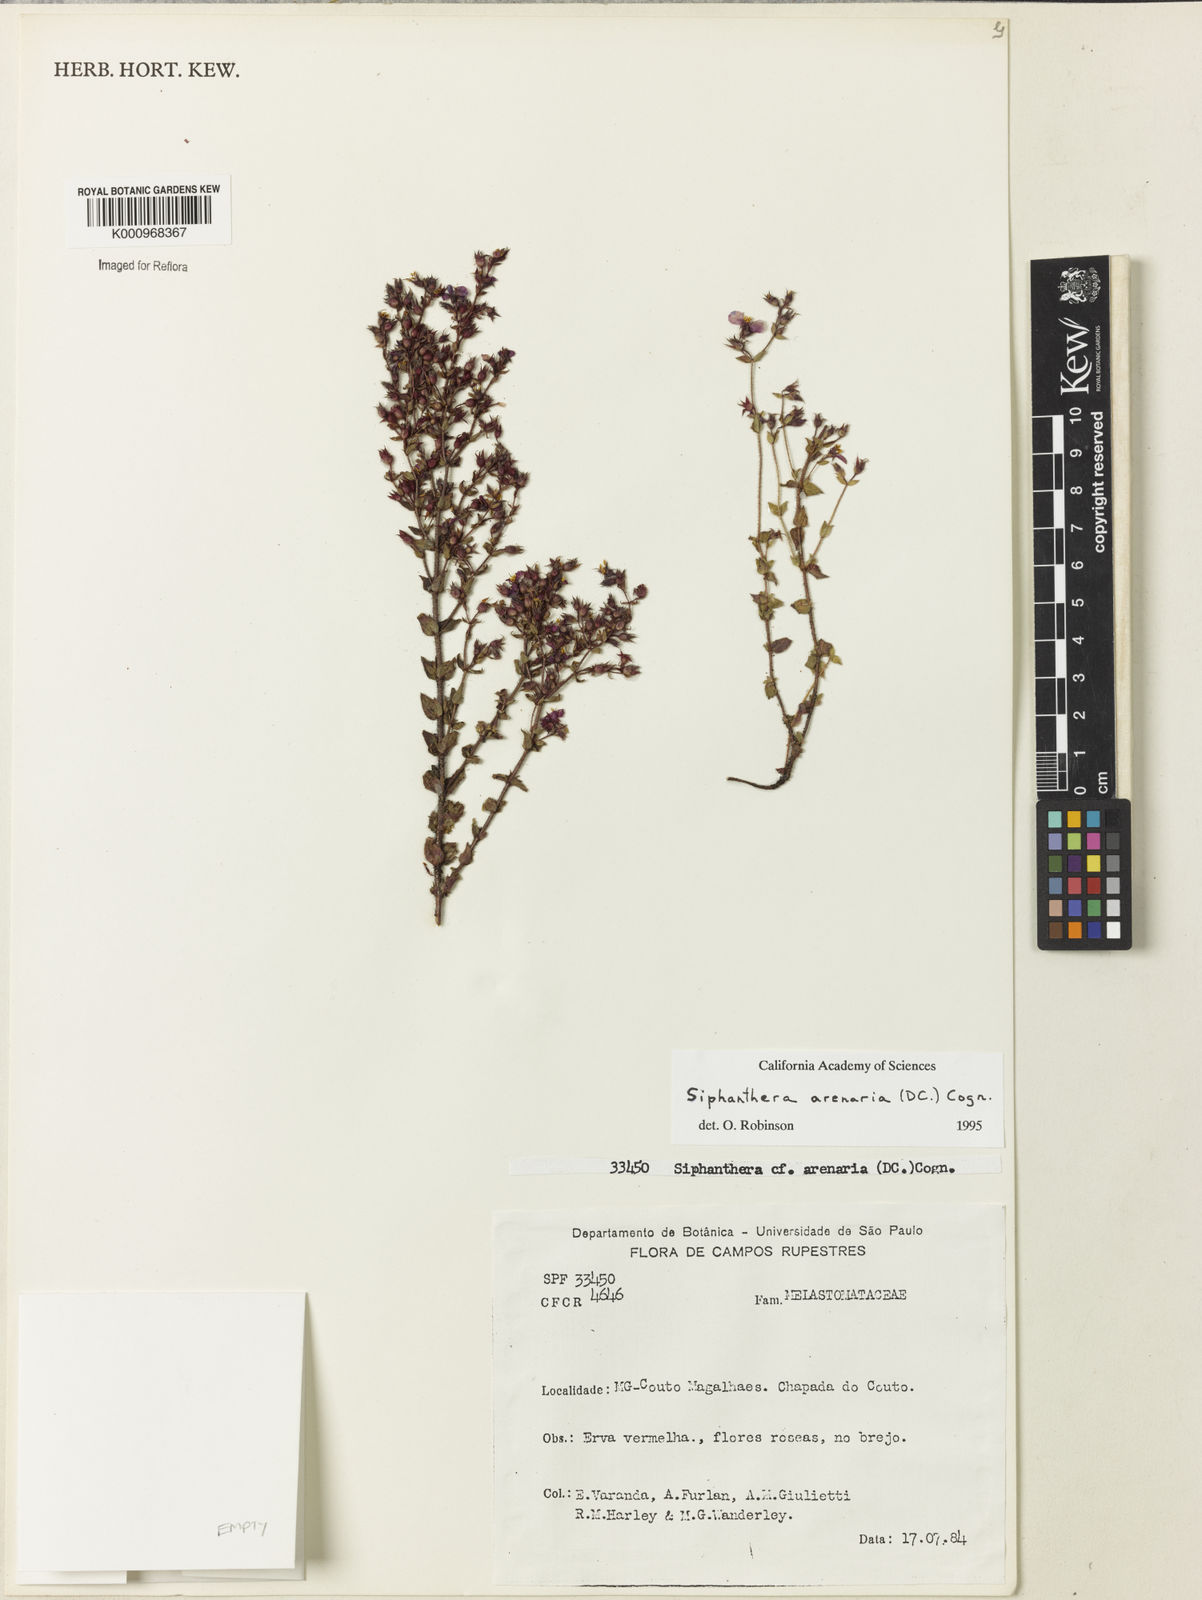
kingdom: Plantae
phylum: Tracheophyta
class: Magnoliopsida
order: Myrtales
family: Melastomataceae
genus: Siphanthera
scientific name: Siphanthera arenaria
